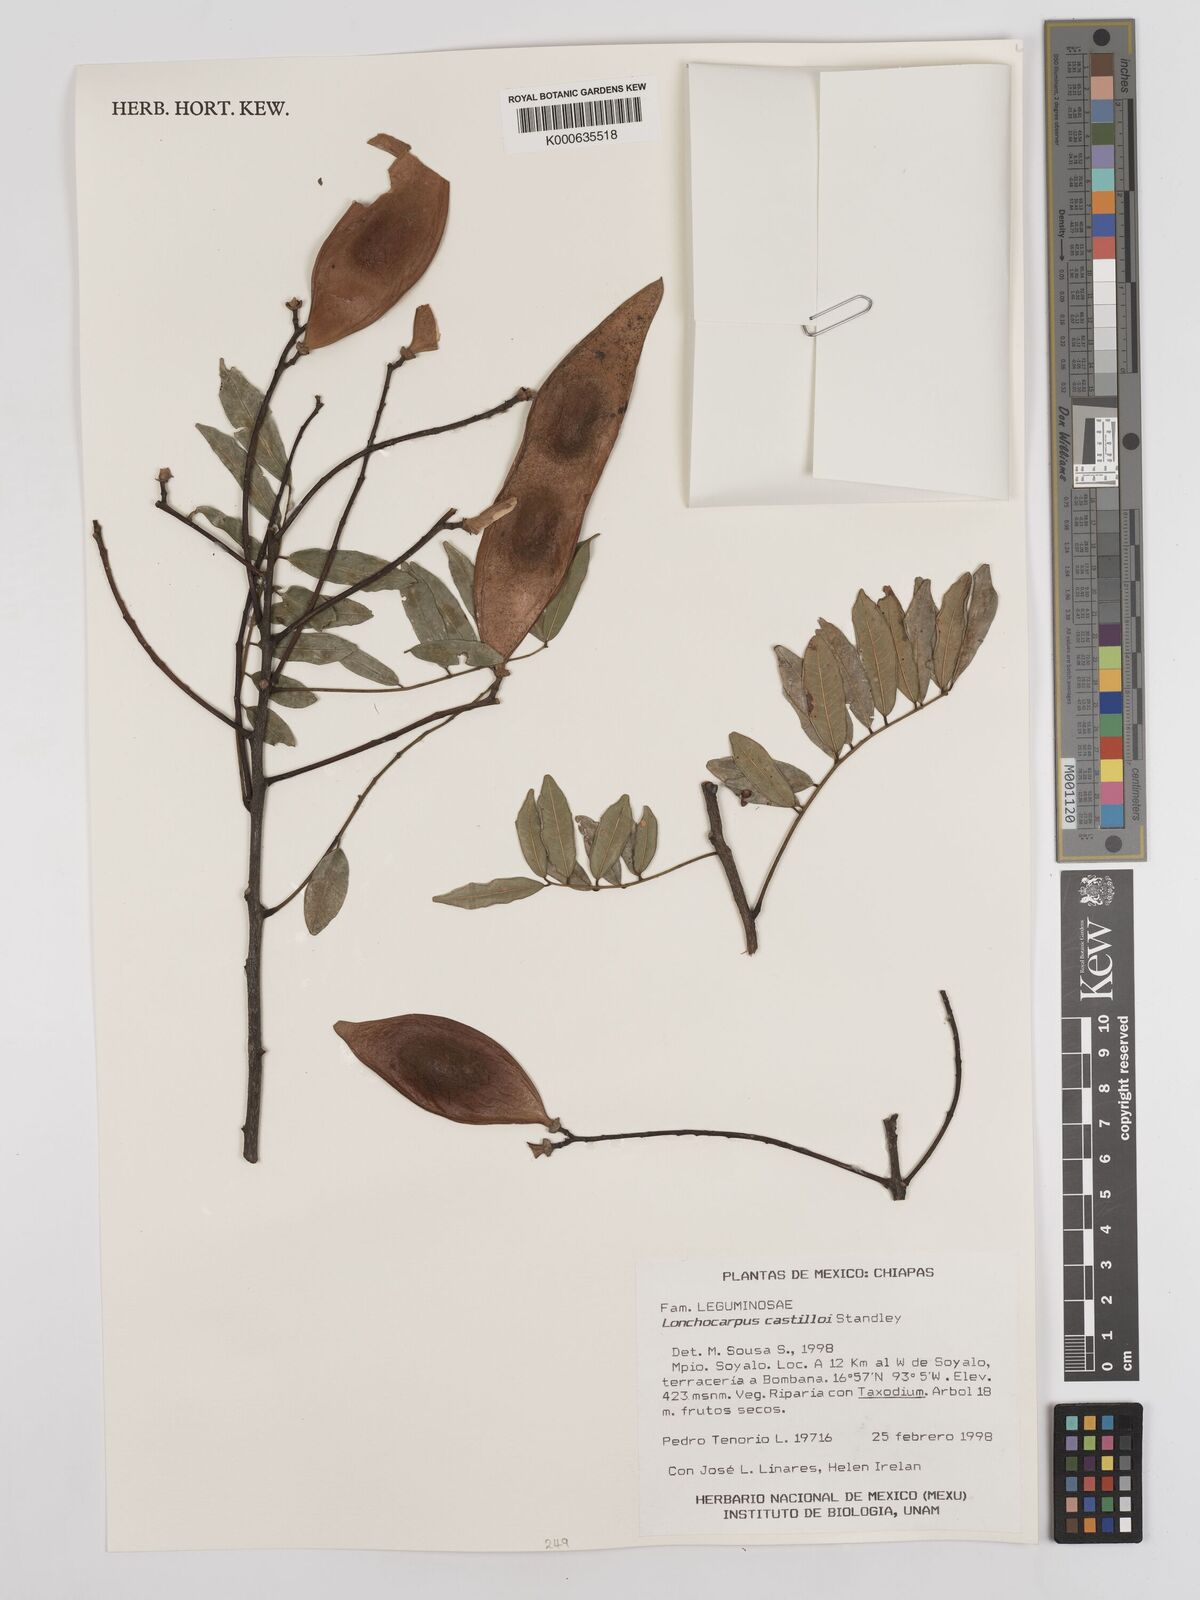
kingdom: Plantae
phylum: Tracheophyta
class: Magnoliopsida
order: Fabales
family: Fabaceae
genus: Lonchocarpus
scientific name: Lonchocarpus castilloi
